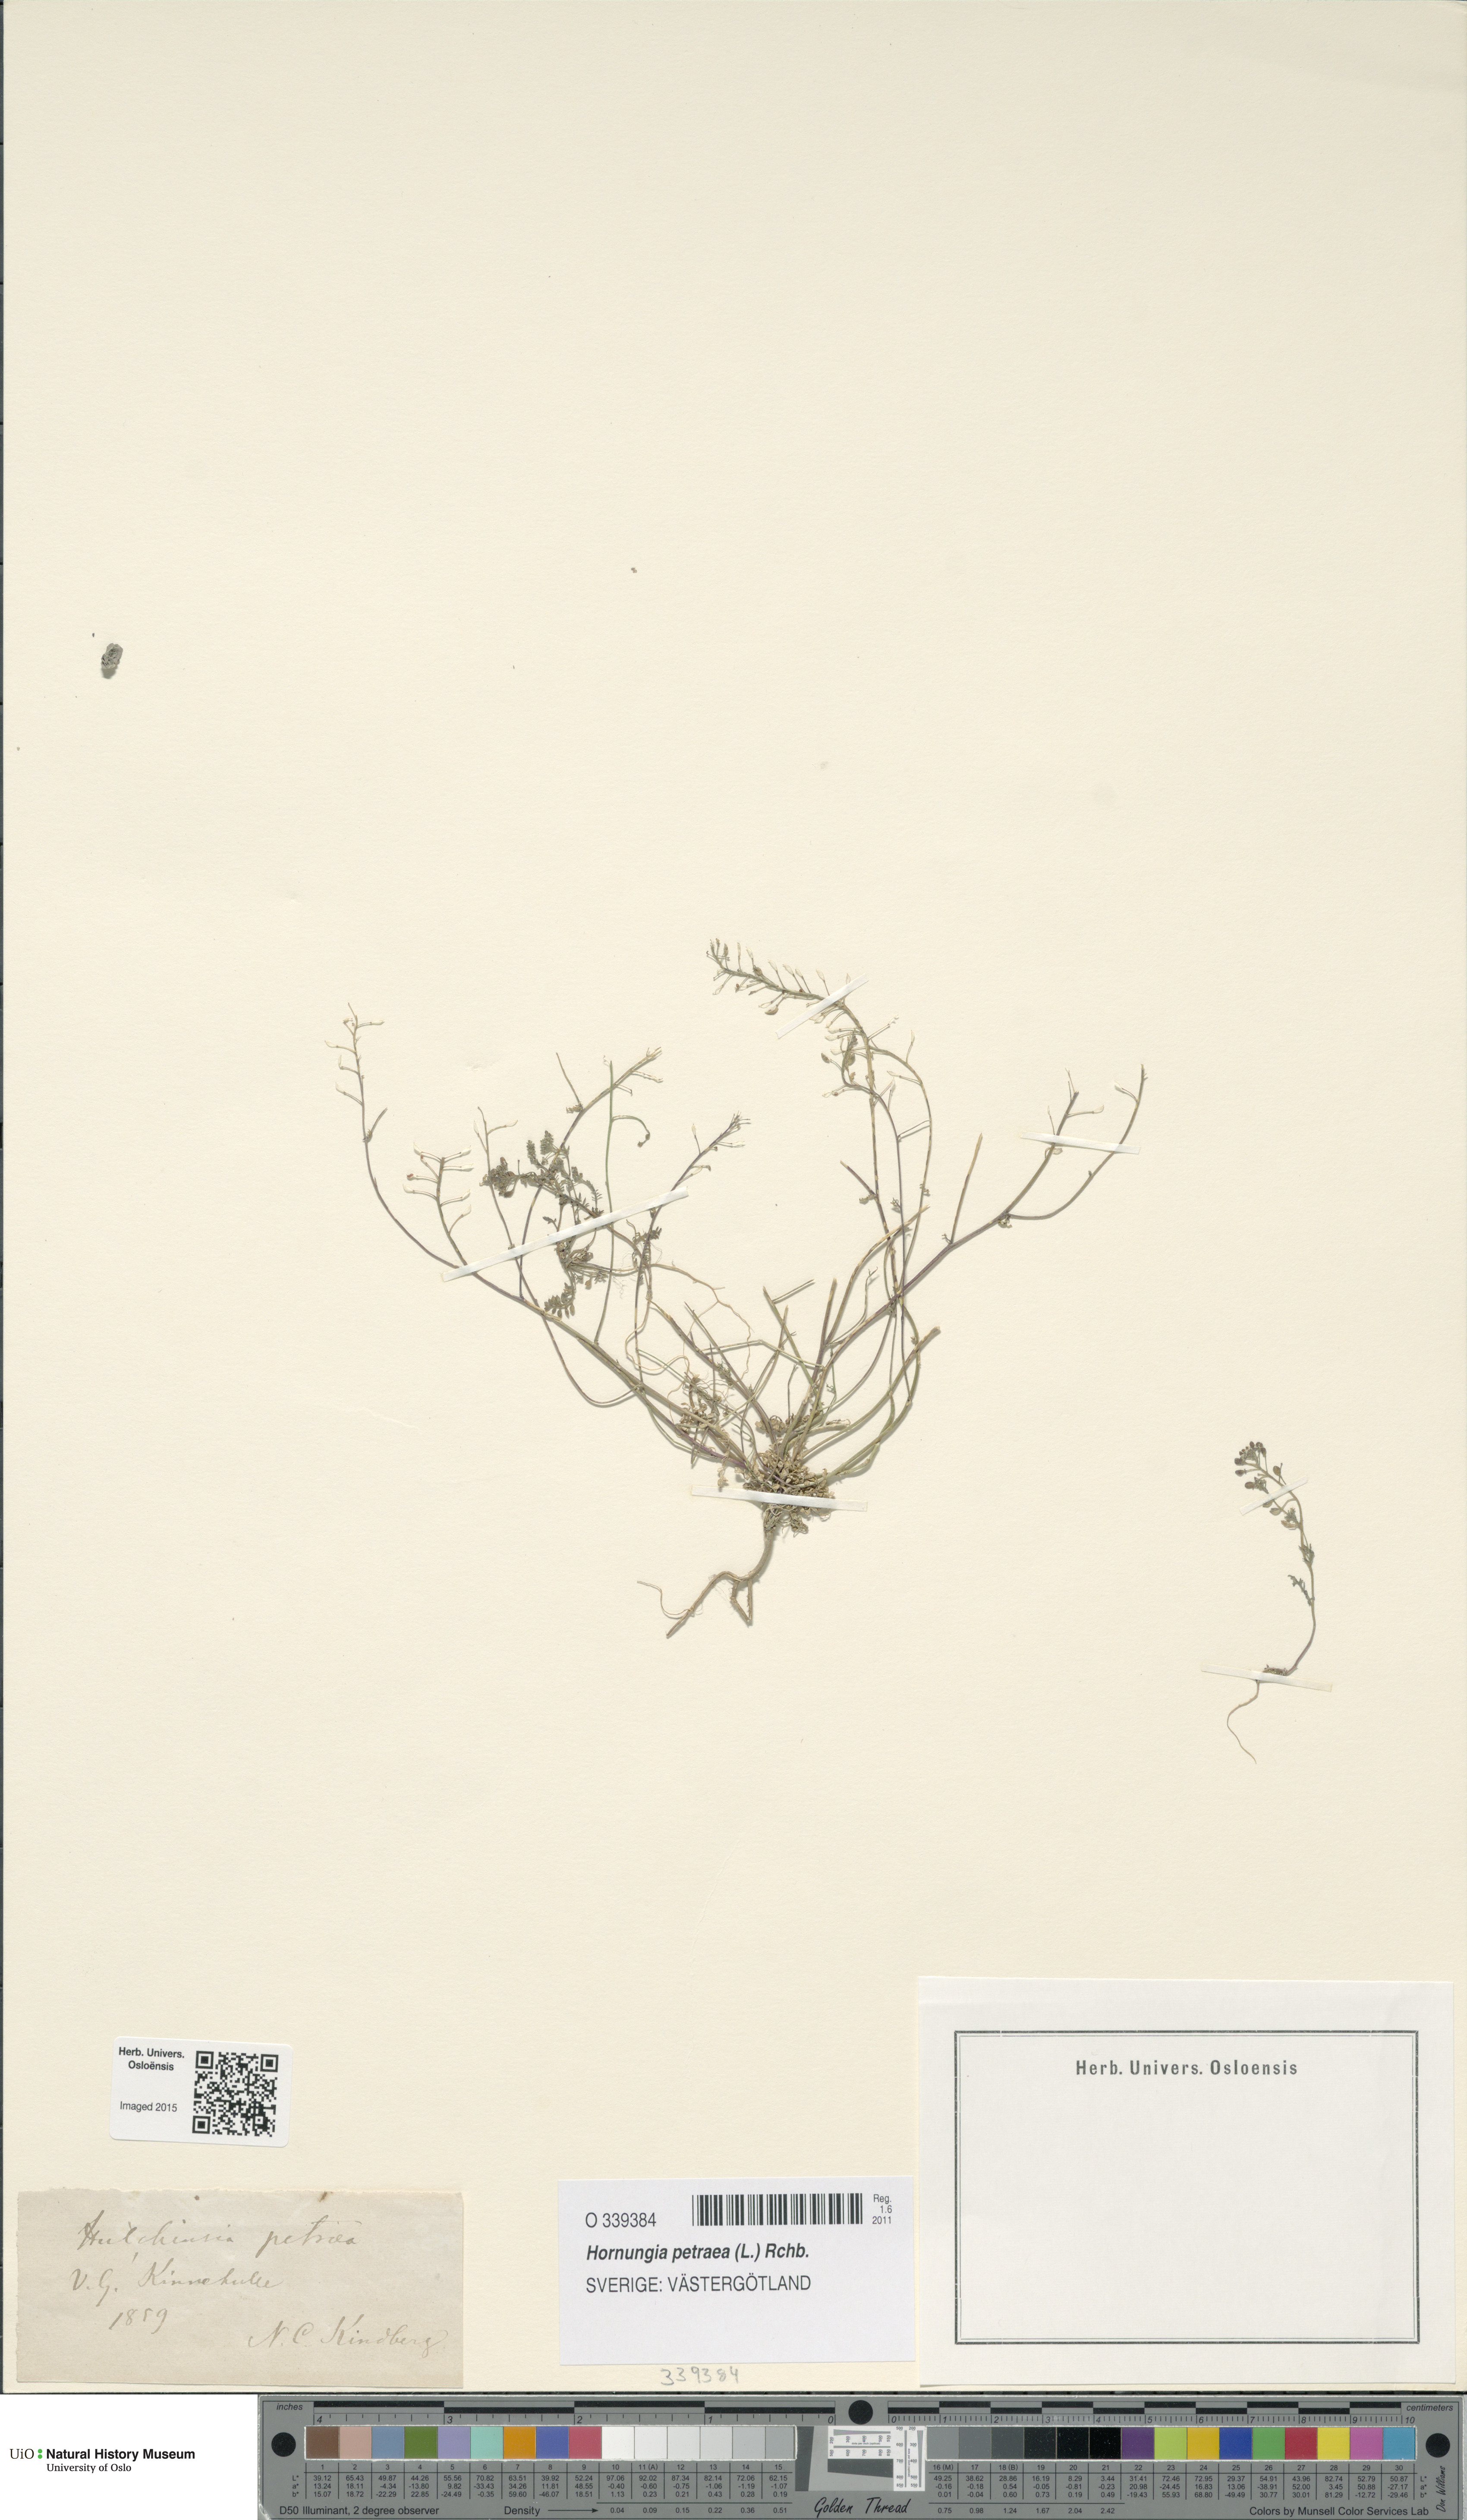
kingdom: Plantae
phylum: Tracheophyta
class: Magnoliopsida
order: Brassicales
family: Brassicaceae
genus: Hornungia
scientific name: Hornungia petraea
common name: Hutchinsia
